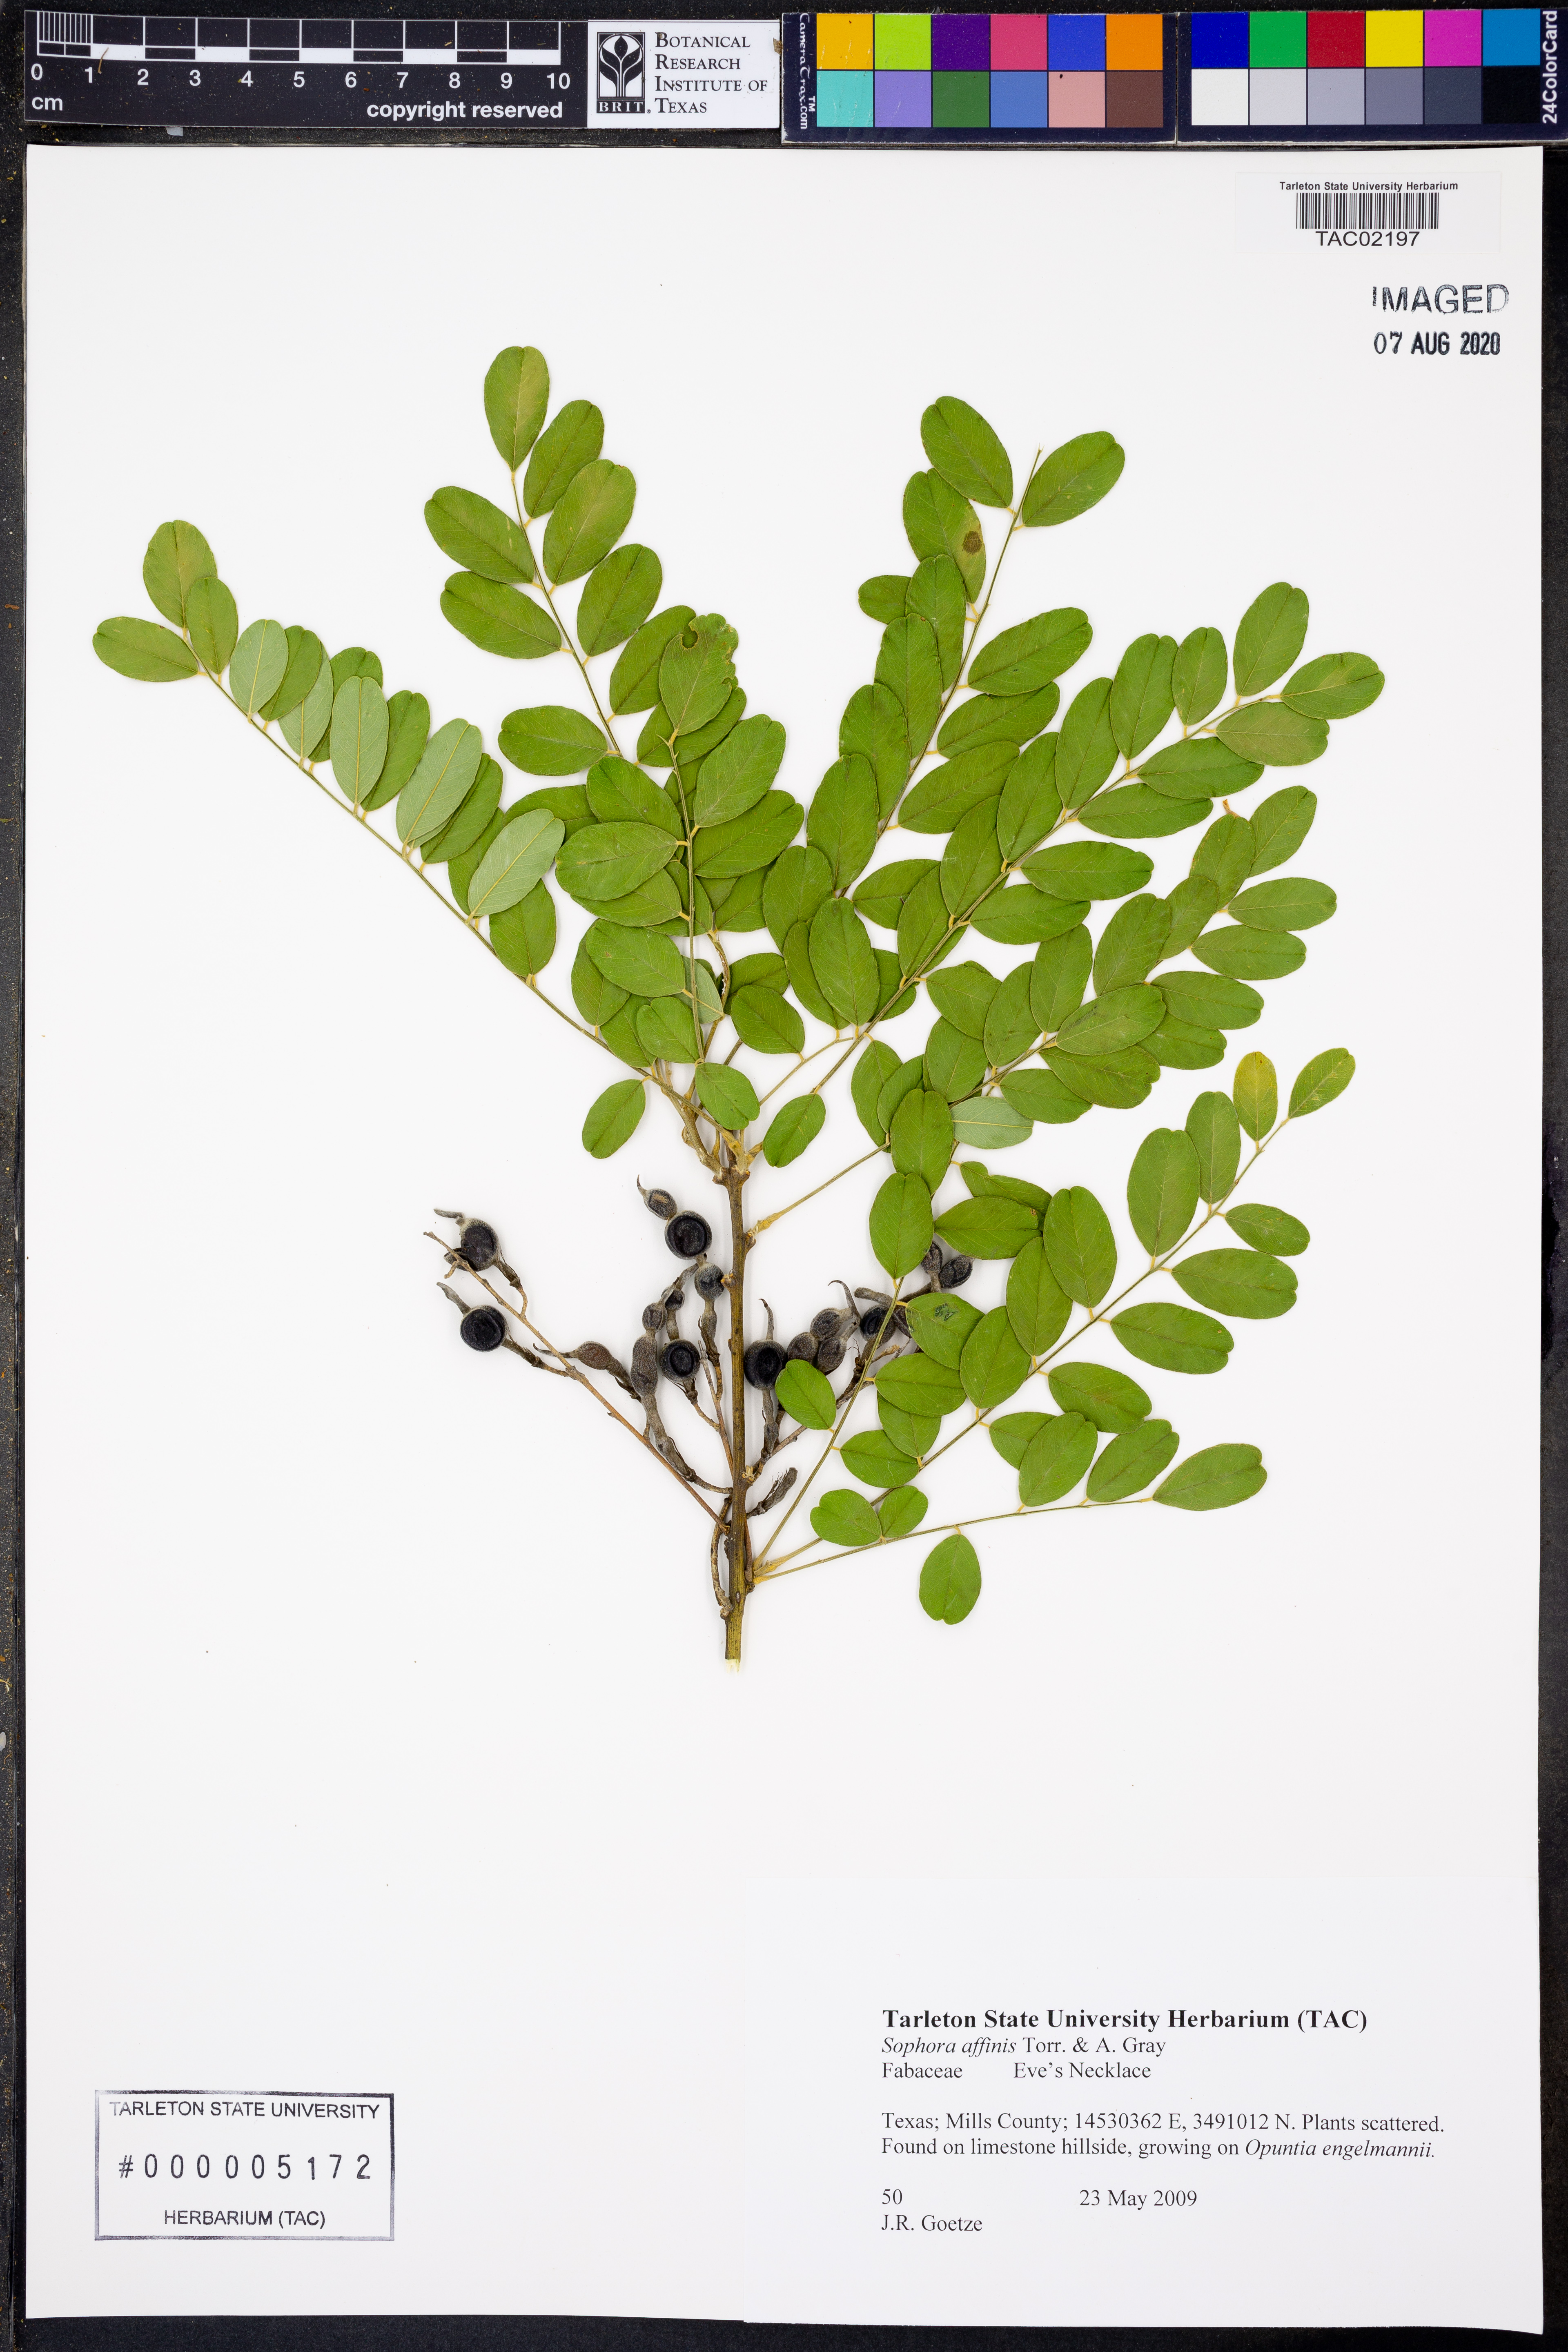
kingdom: Plantae
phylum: Tracheophyta
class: Magnoliopsida
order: Fabales
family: Fabaceae
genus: Styphnolobium
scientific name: Styphnolobium affine
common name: Texas sophora
